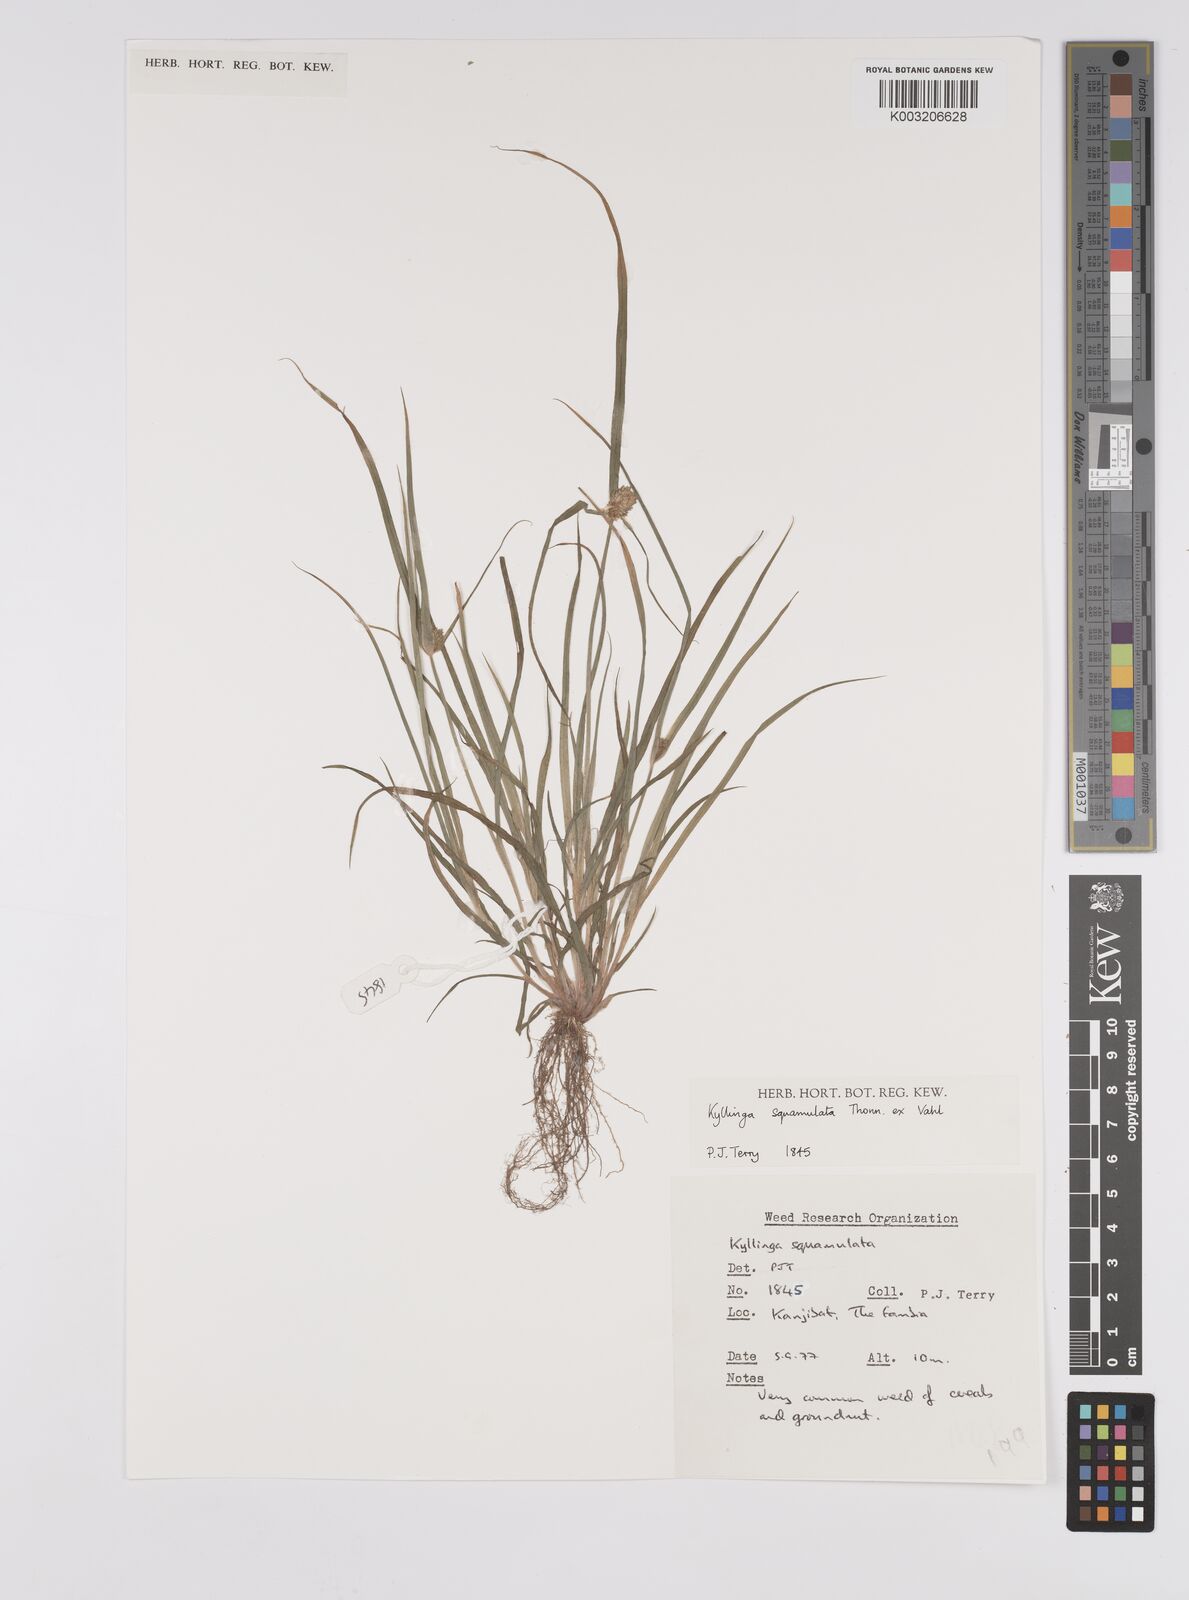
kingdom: Plantae
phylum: Tracheophyta
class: Liliopsida
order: Poales
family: Cyperaceae
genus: Cyperus
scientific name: Cyperus distans
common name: Slender cyperus
